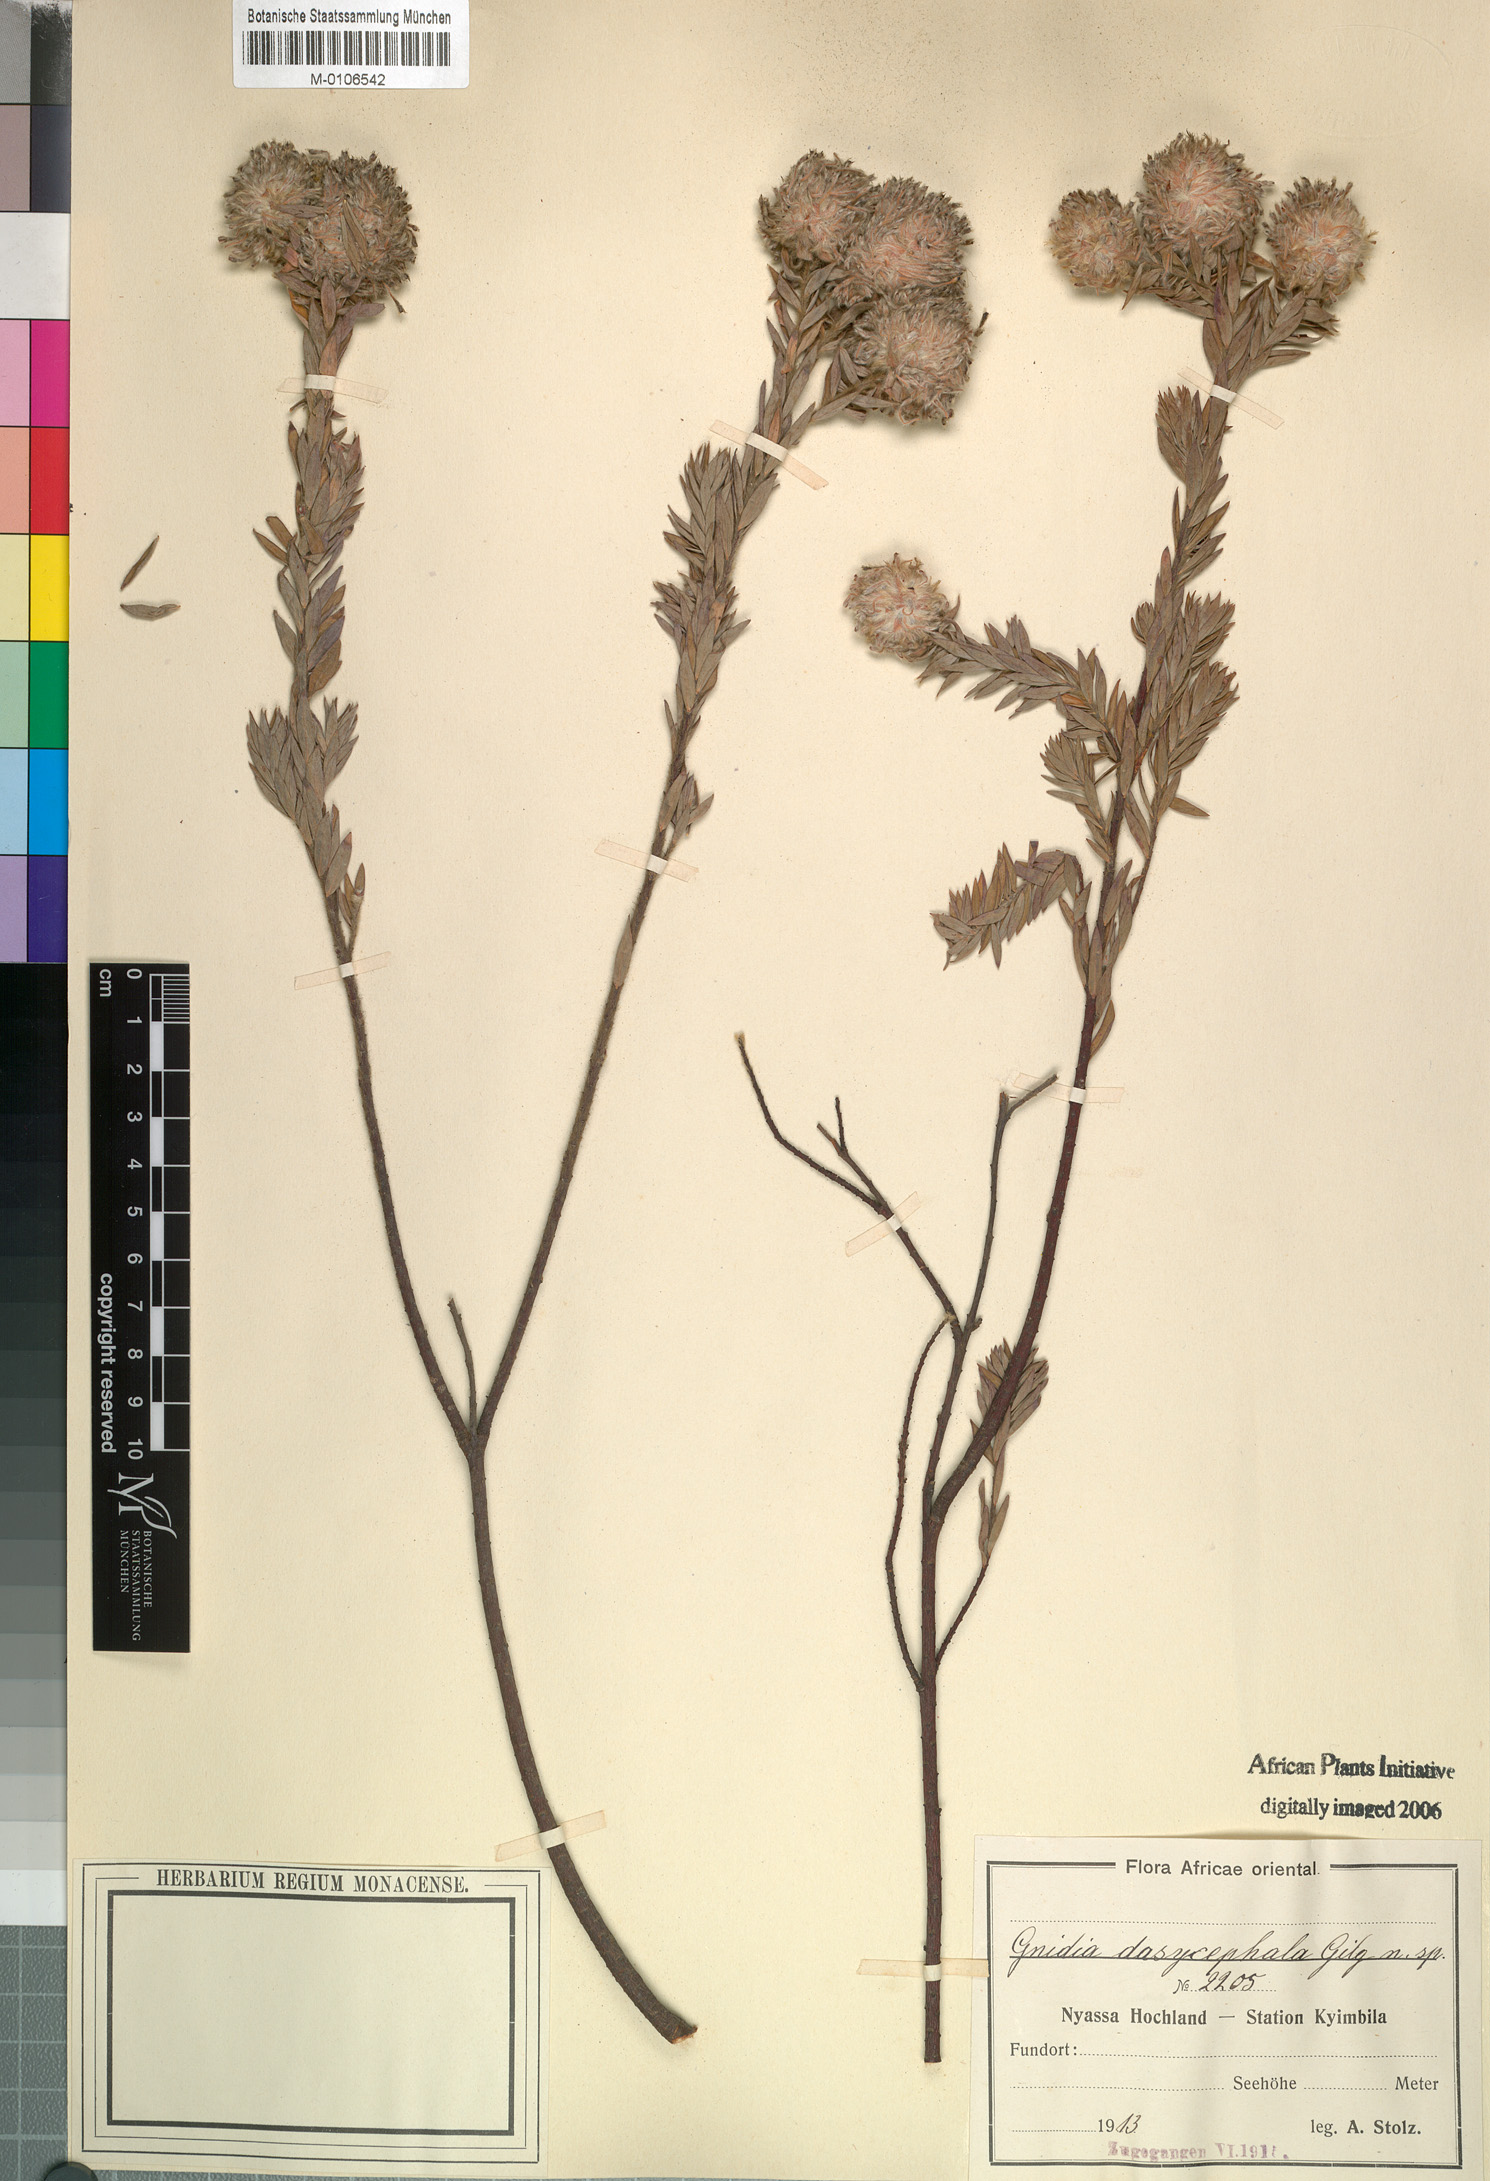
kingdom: Plantae
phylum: Tracheophyta
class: Magnoliopsida
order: Malvales
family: Thymelaeaceae
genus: Gnidia
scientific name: Gnidia
